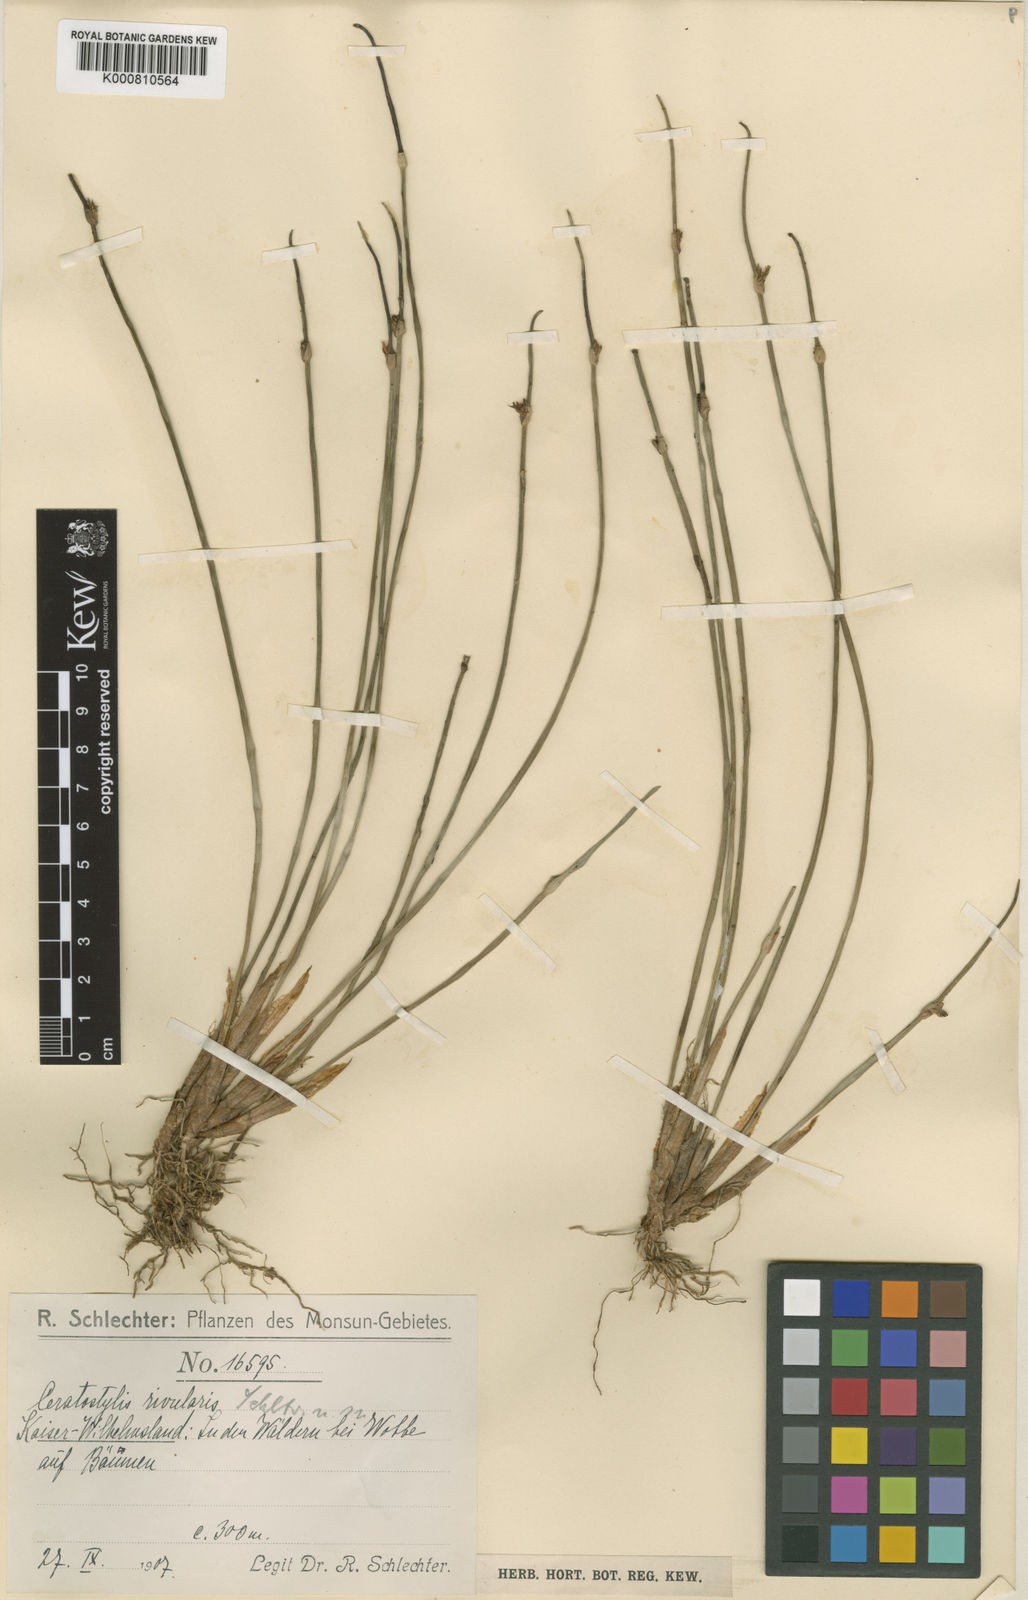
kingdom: Plantae
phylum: Tracheophyta
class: Liliopsida
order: Asparagales
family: Orchidaceae
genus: Ceratostylis
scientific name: Ceratostylis rivularis
